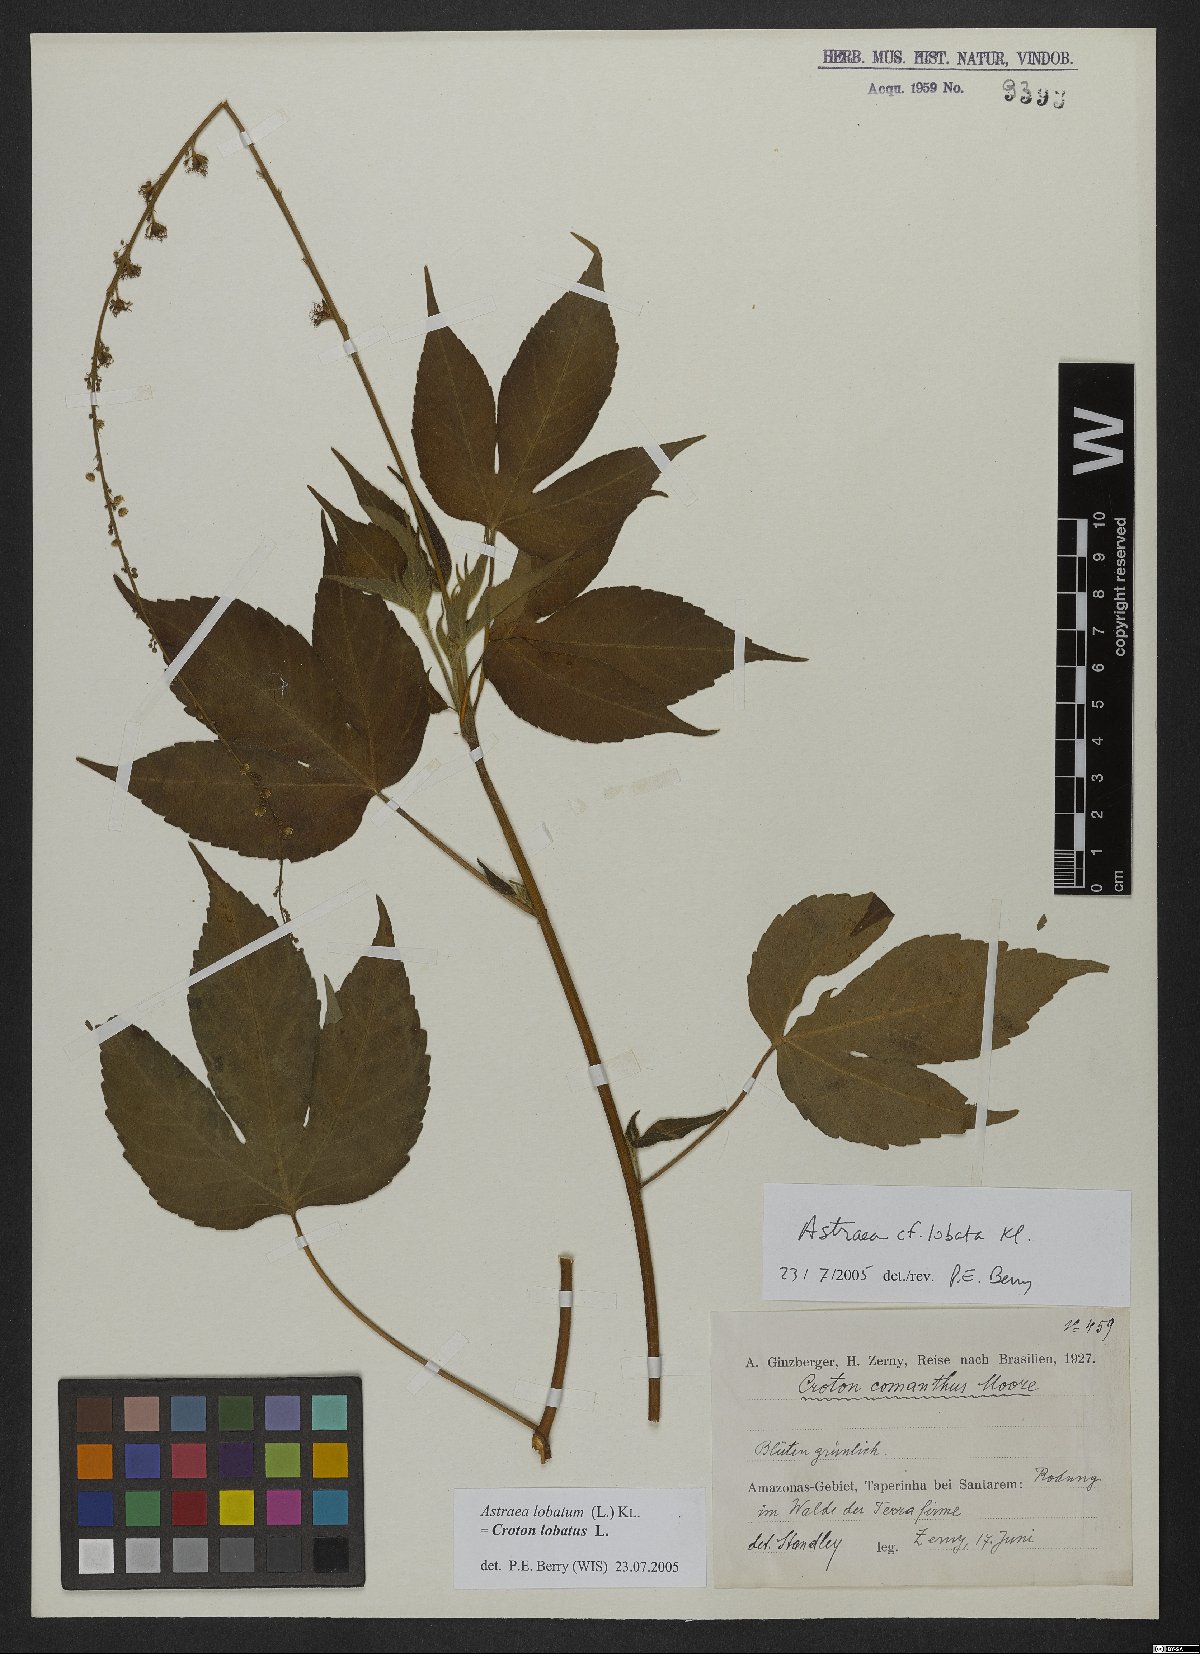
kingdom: Plantae
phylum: Tracheophyta
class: Magnoliopsida
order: Malpighiales
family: Euphorbiaceae
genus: Croton
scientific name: Croton lobatus
